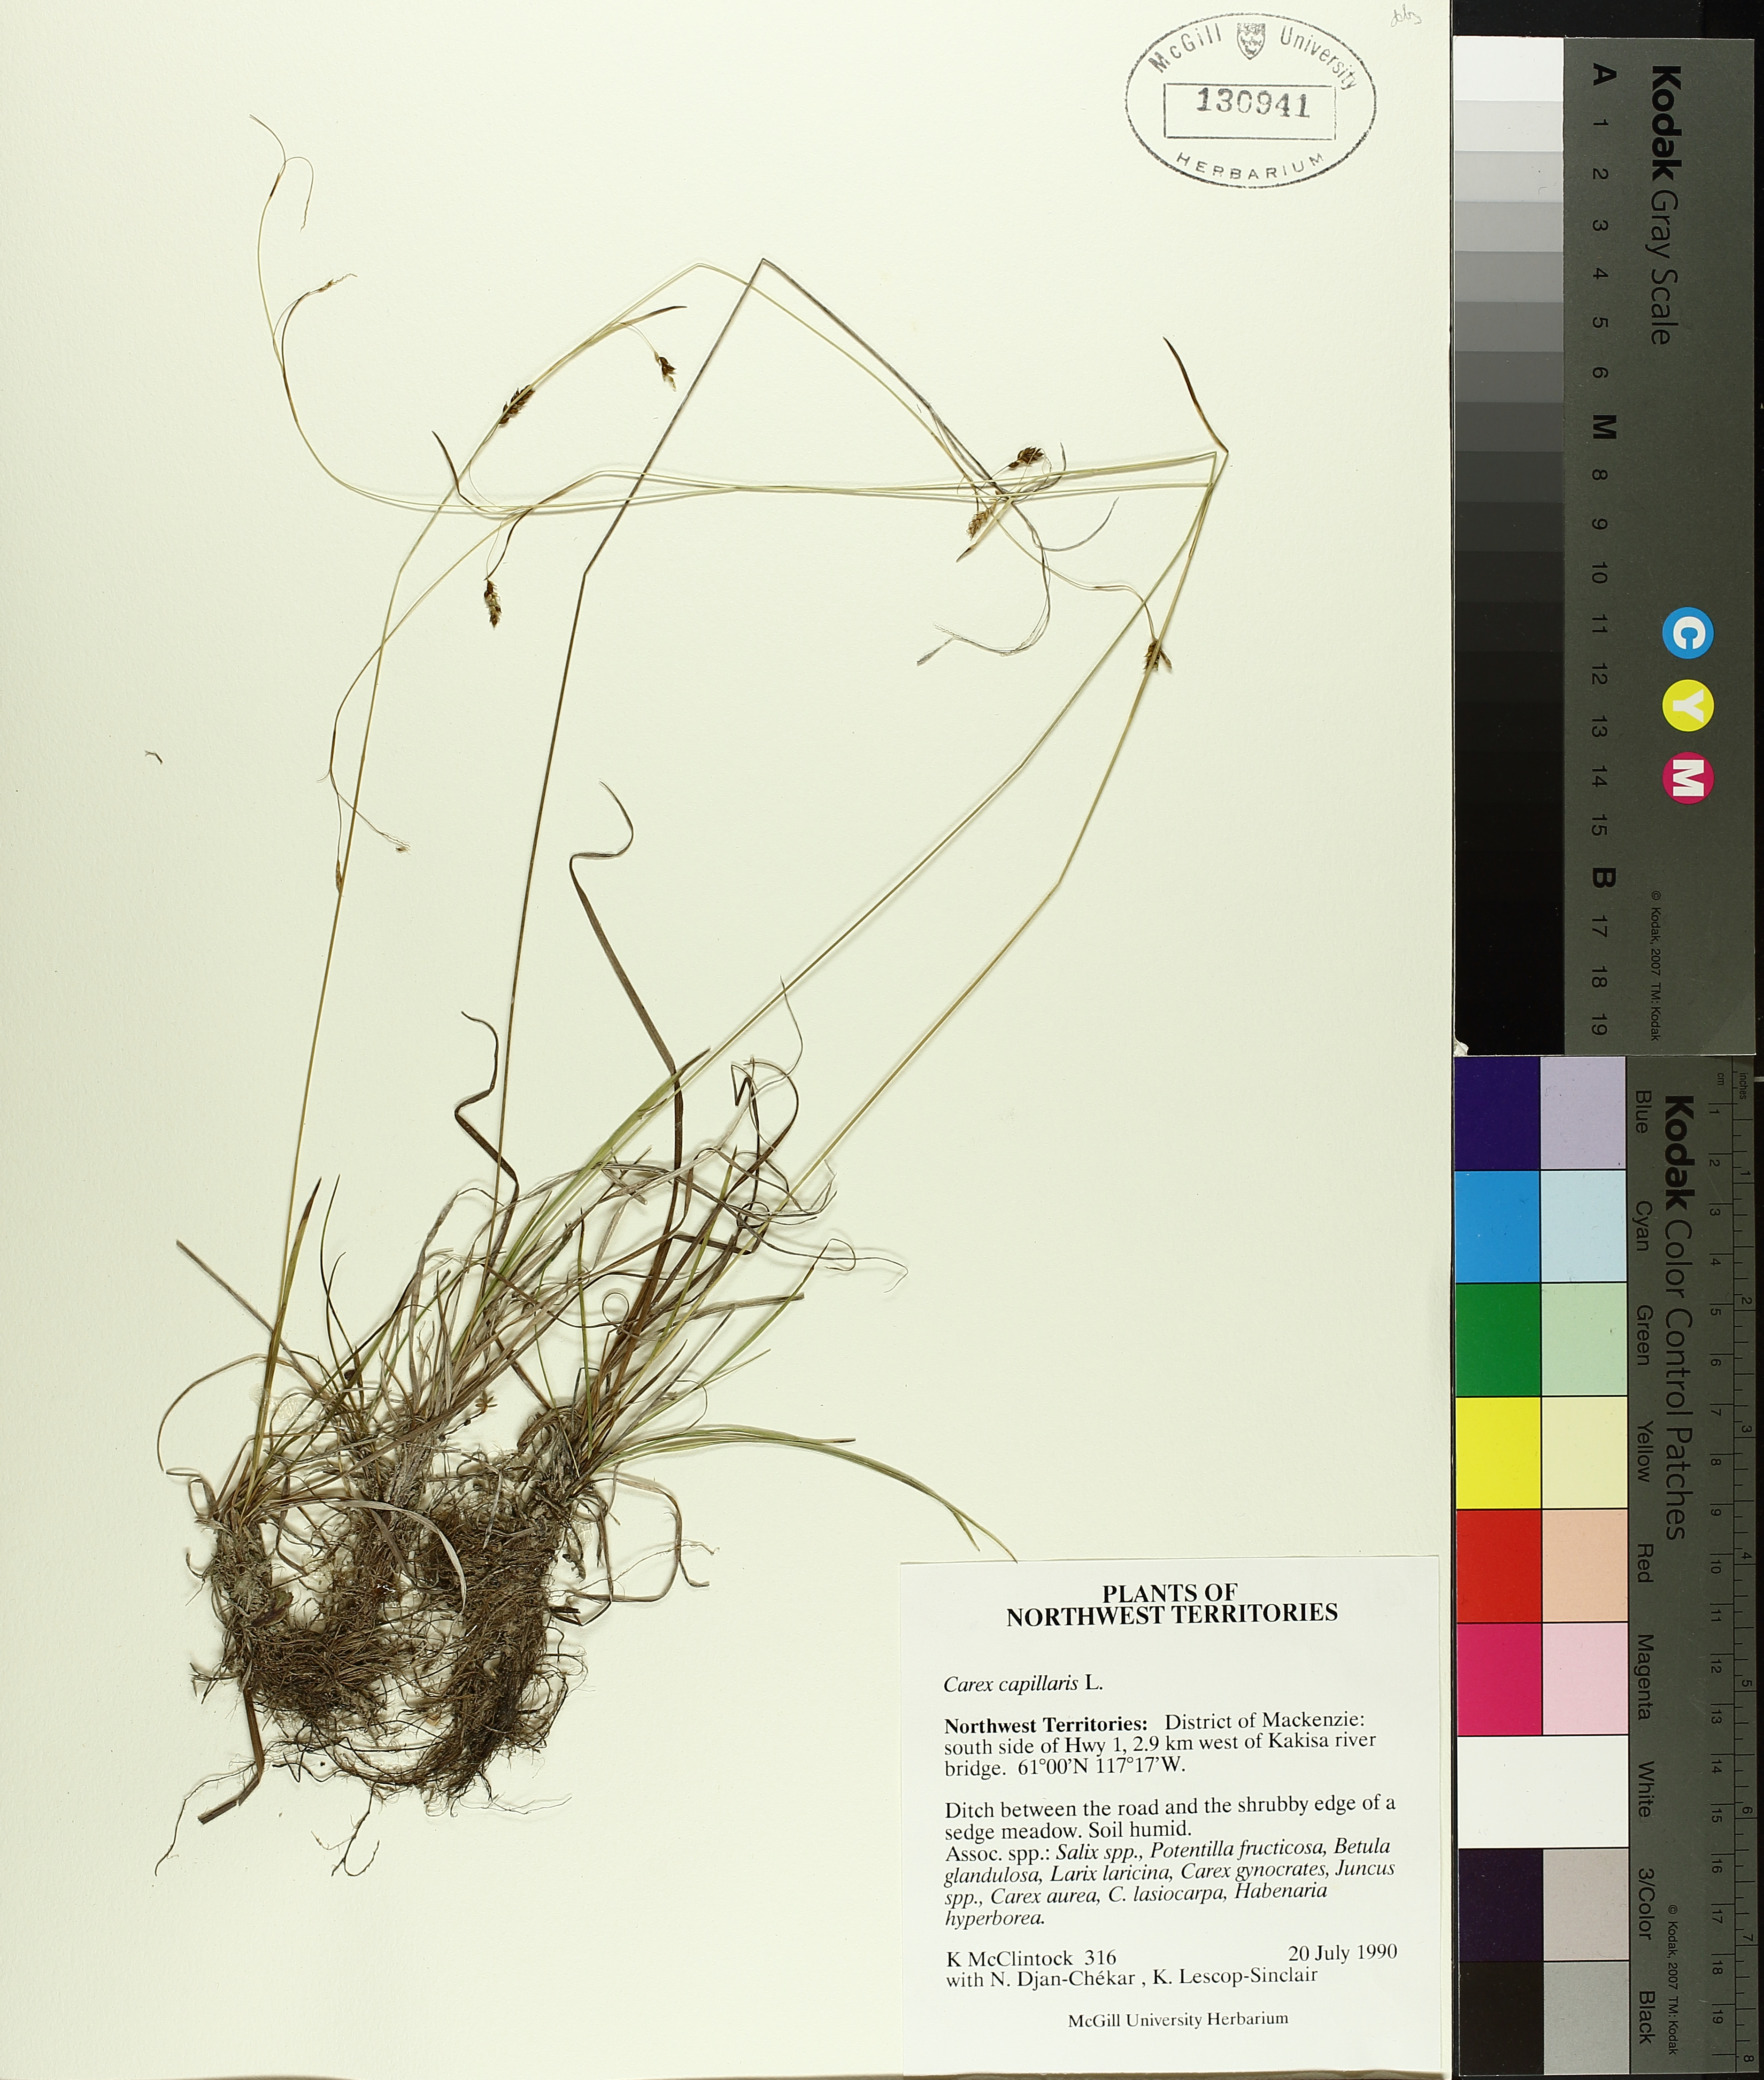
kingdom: Plantae
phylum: Tracheophyta
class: Liliopsida
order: Poales
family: Cyperaceae
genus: Carex
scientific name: Carex capillaris
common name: Hair sedge
